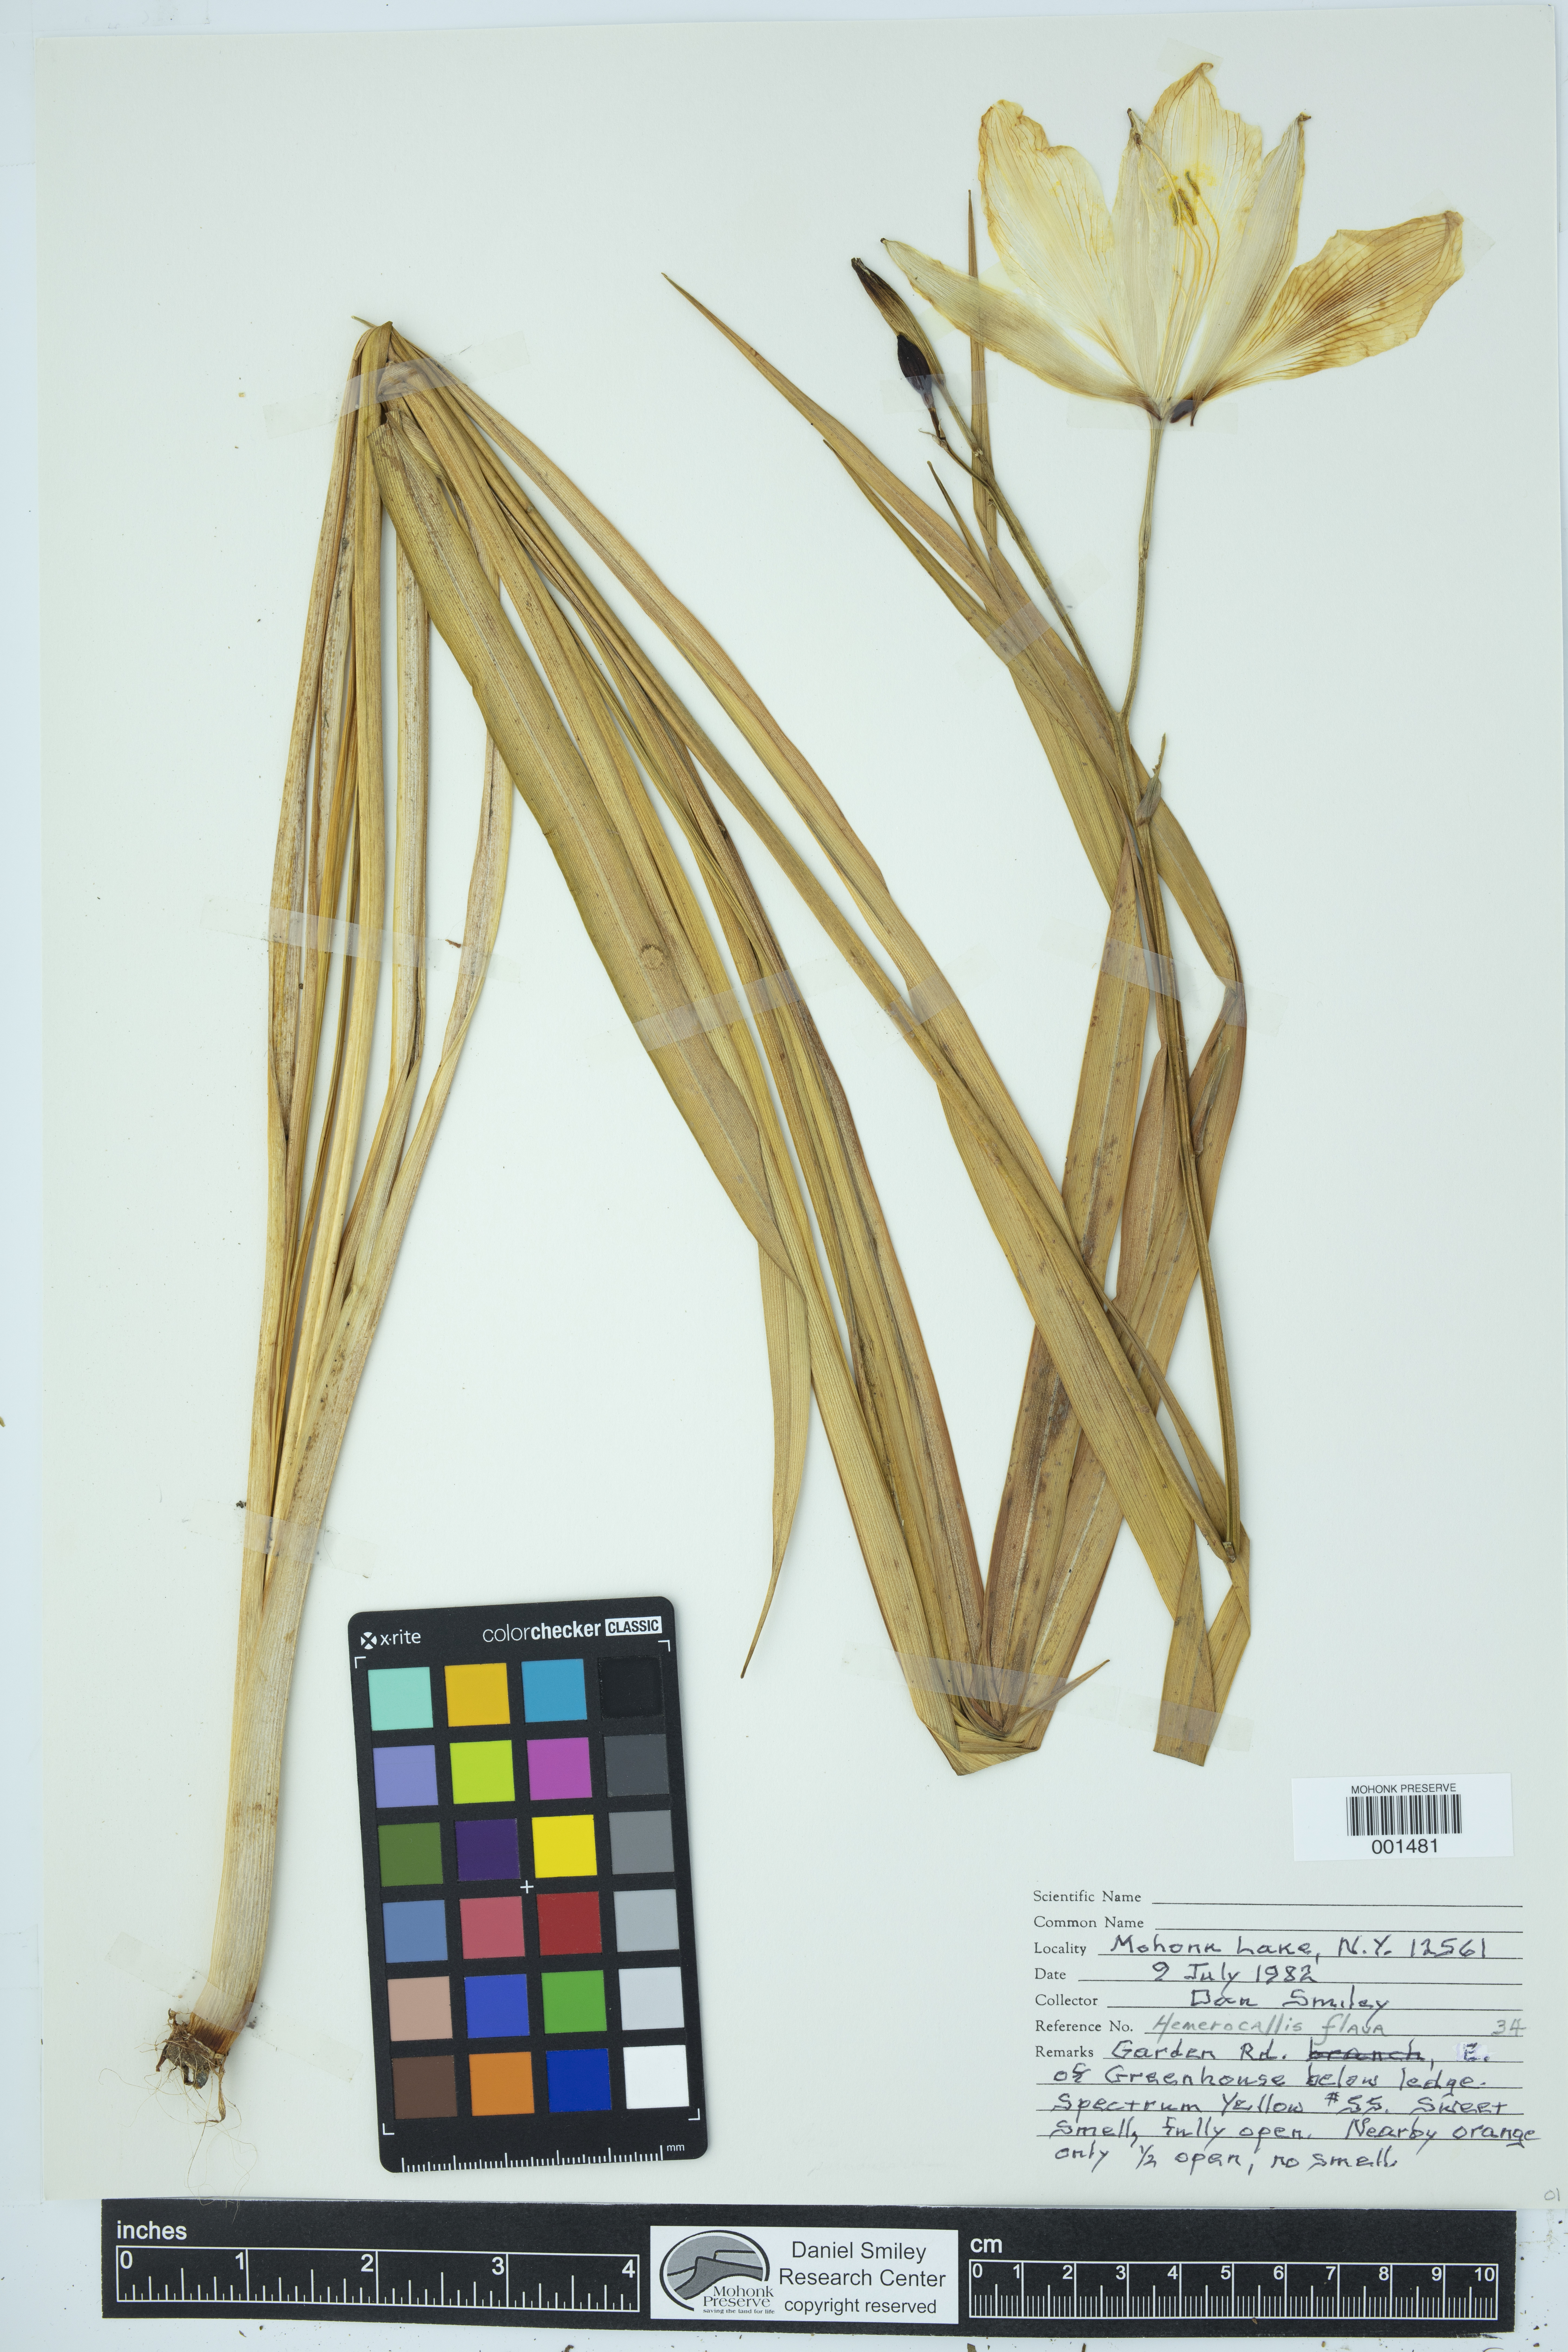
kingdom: Plantae
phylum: Tracheophyta
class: Liliopsida
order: Asparagales
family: Asphodelaceae
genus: Hemerocallis
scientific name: Hemerocallis lilioasphodelus
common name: Yellow day-lily
